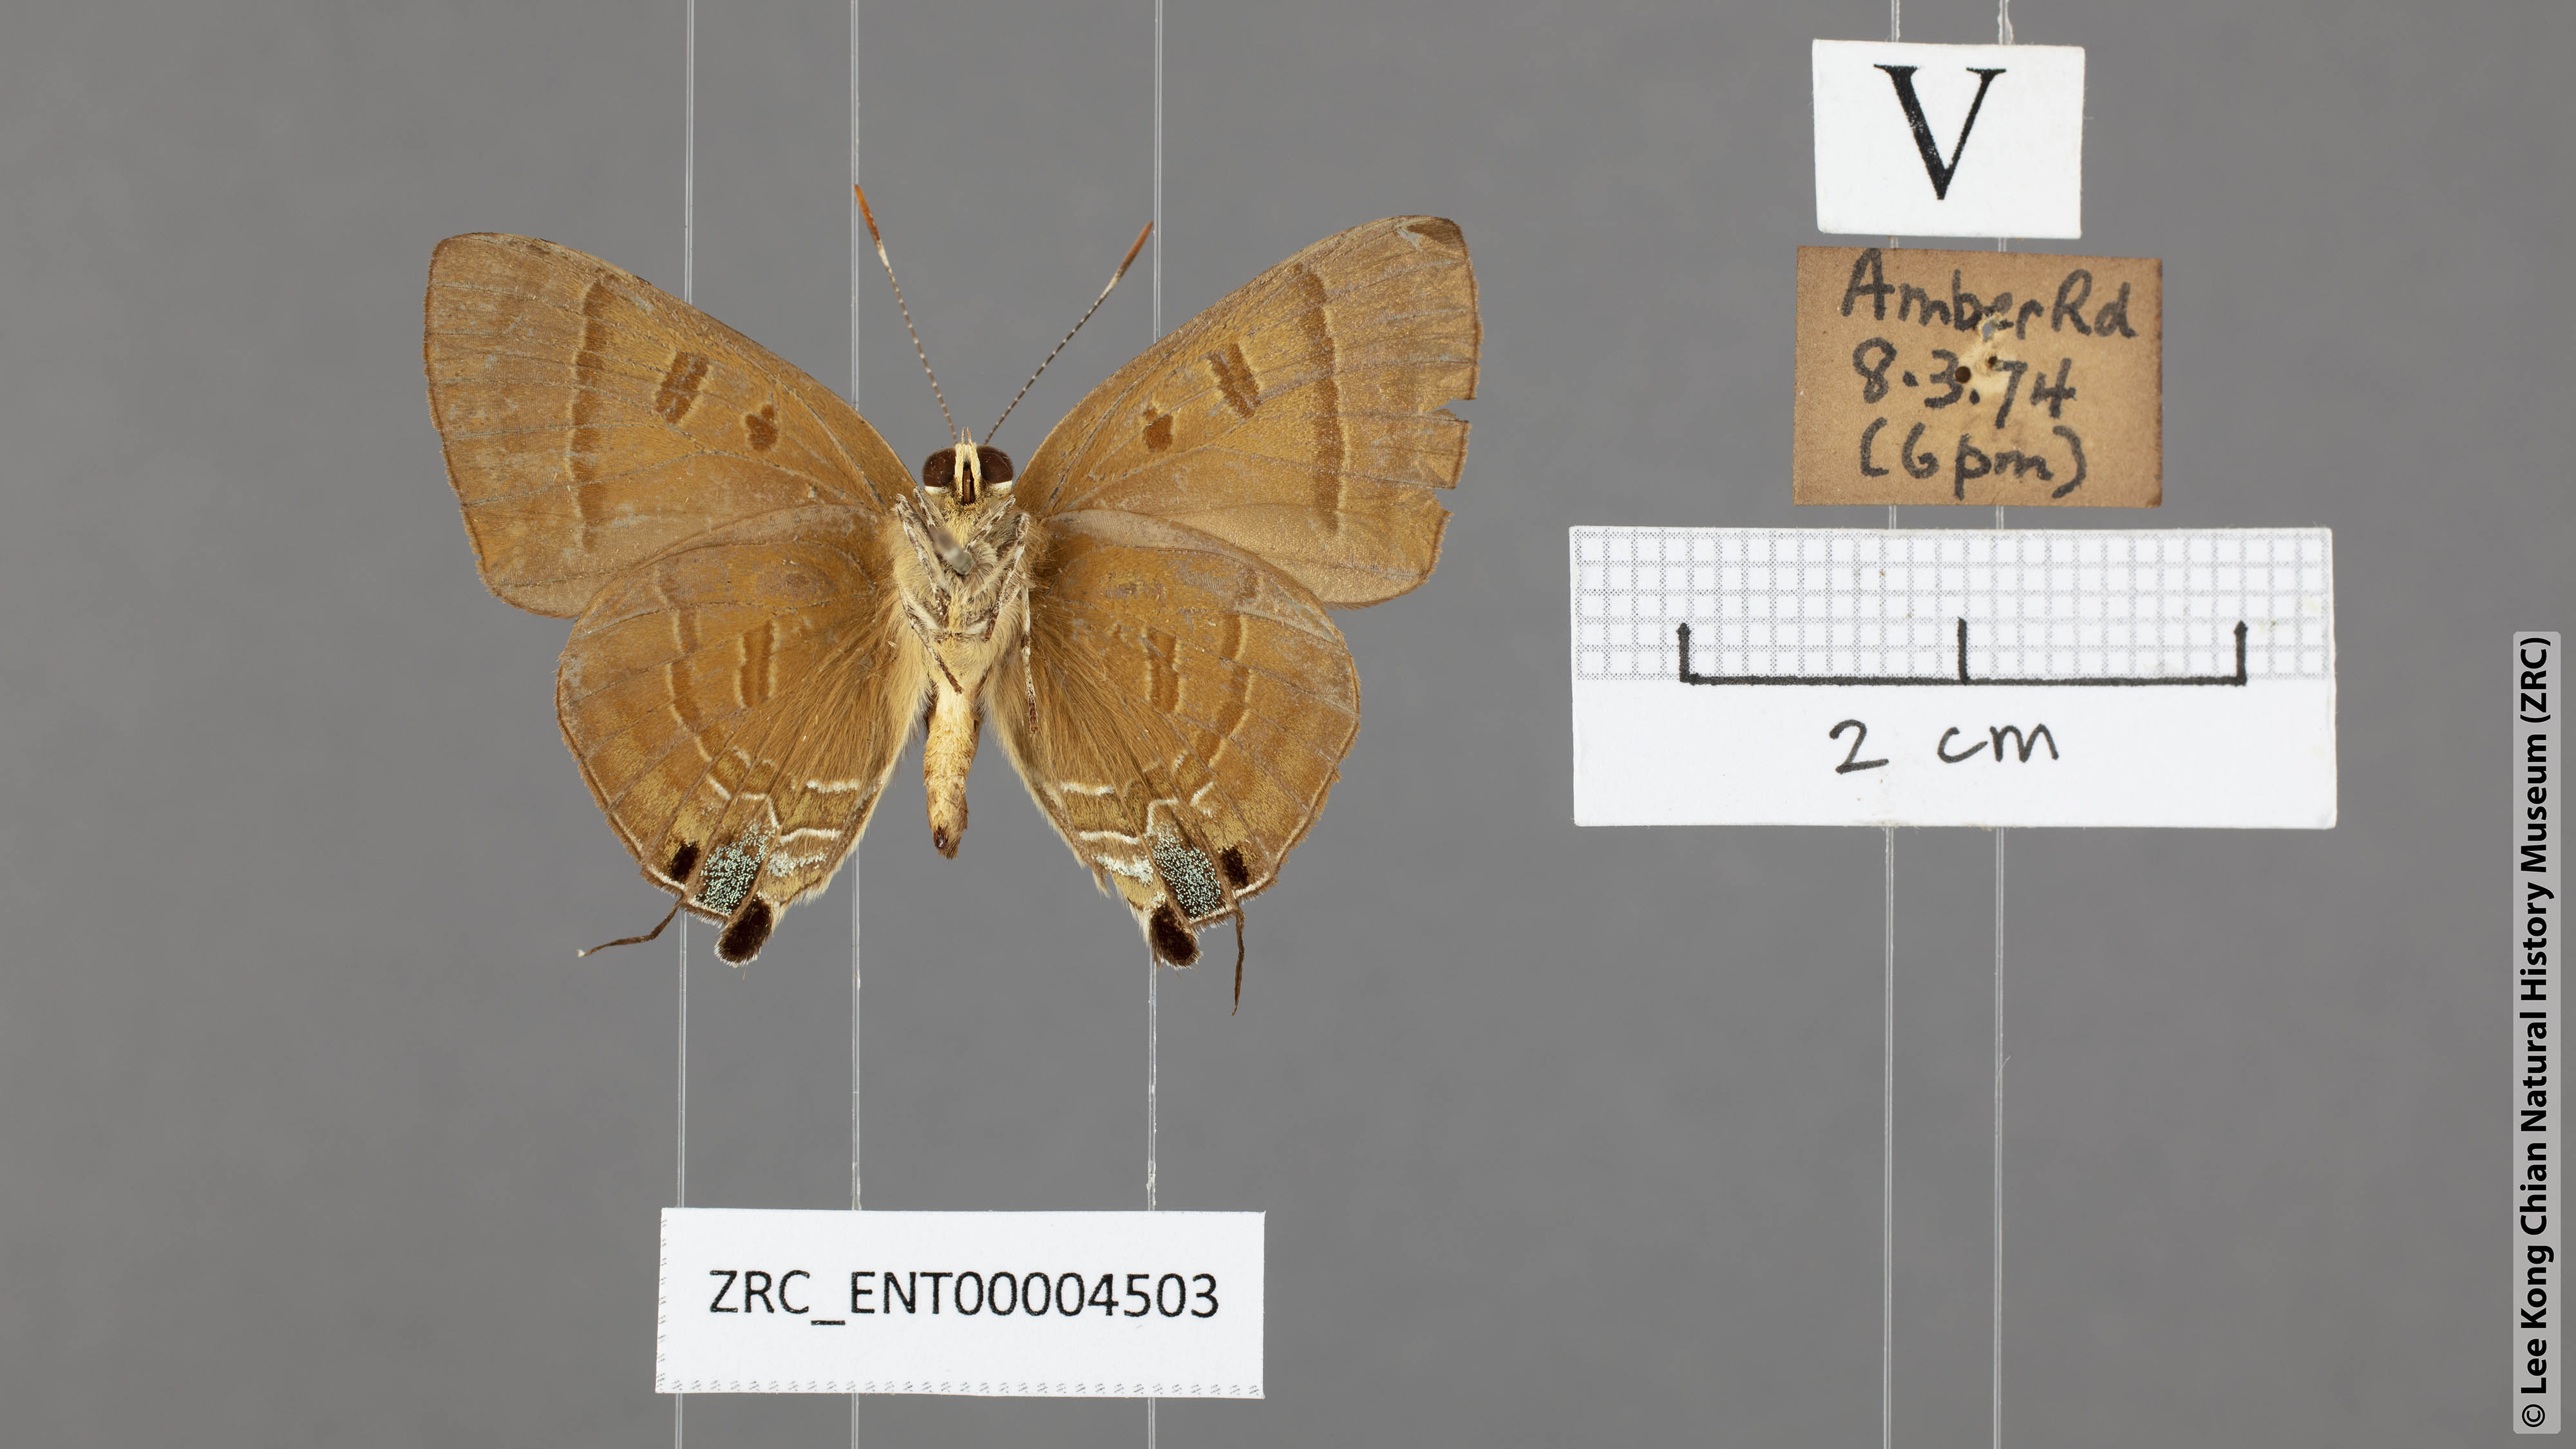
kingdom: Animalia
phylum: Arthropoda
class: Insecta
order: Lepidoptera
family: Lycaenidae
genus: Rapala
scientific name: Rapala pheretima
